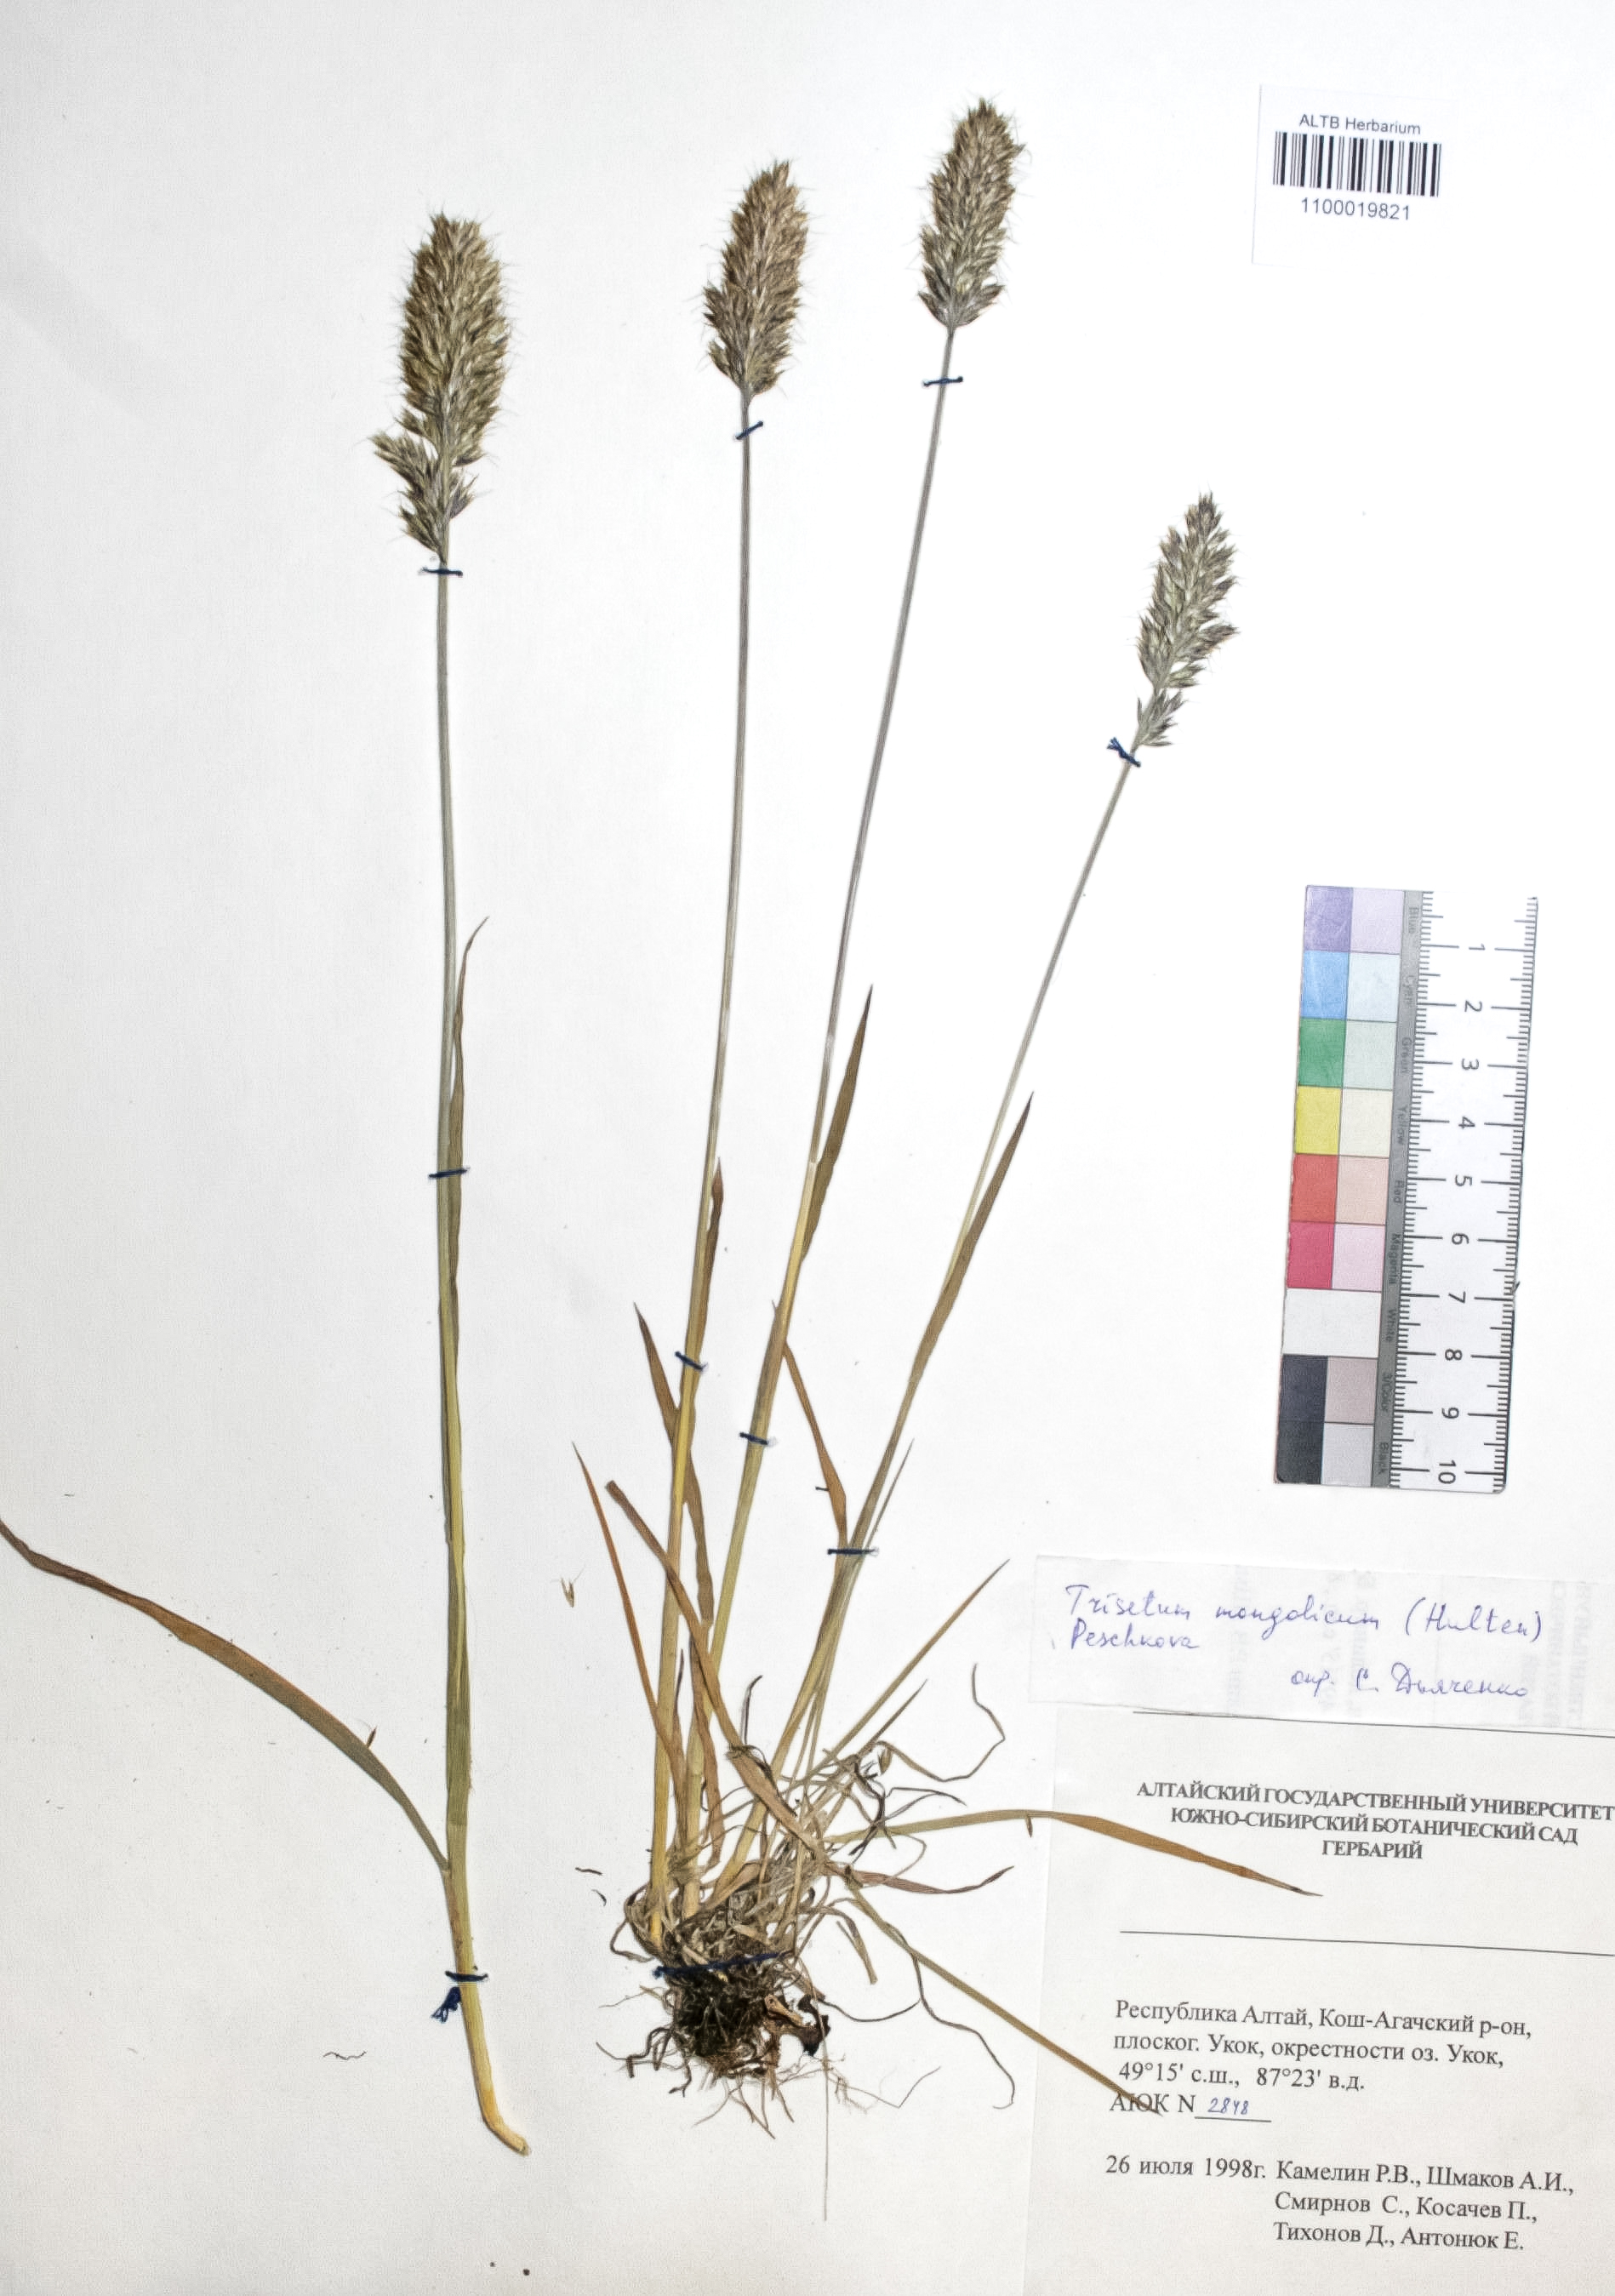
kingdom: Plantae
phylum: Tracheophyta
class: Liliopsida
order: Poales
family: Poaceae
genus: Koeleria
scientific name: Koeleria spicata
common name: Mountain trisetum
